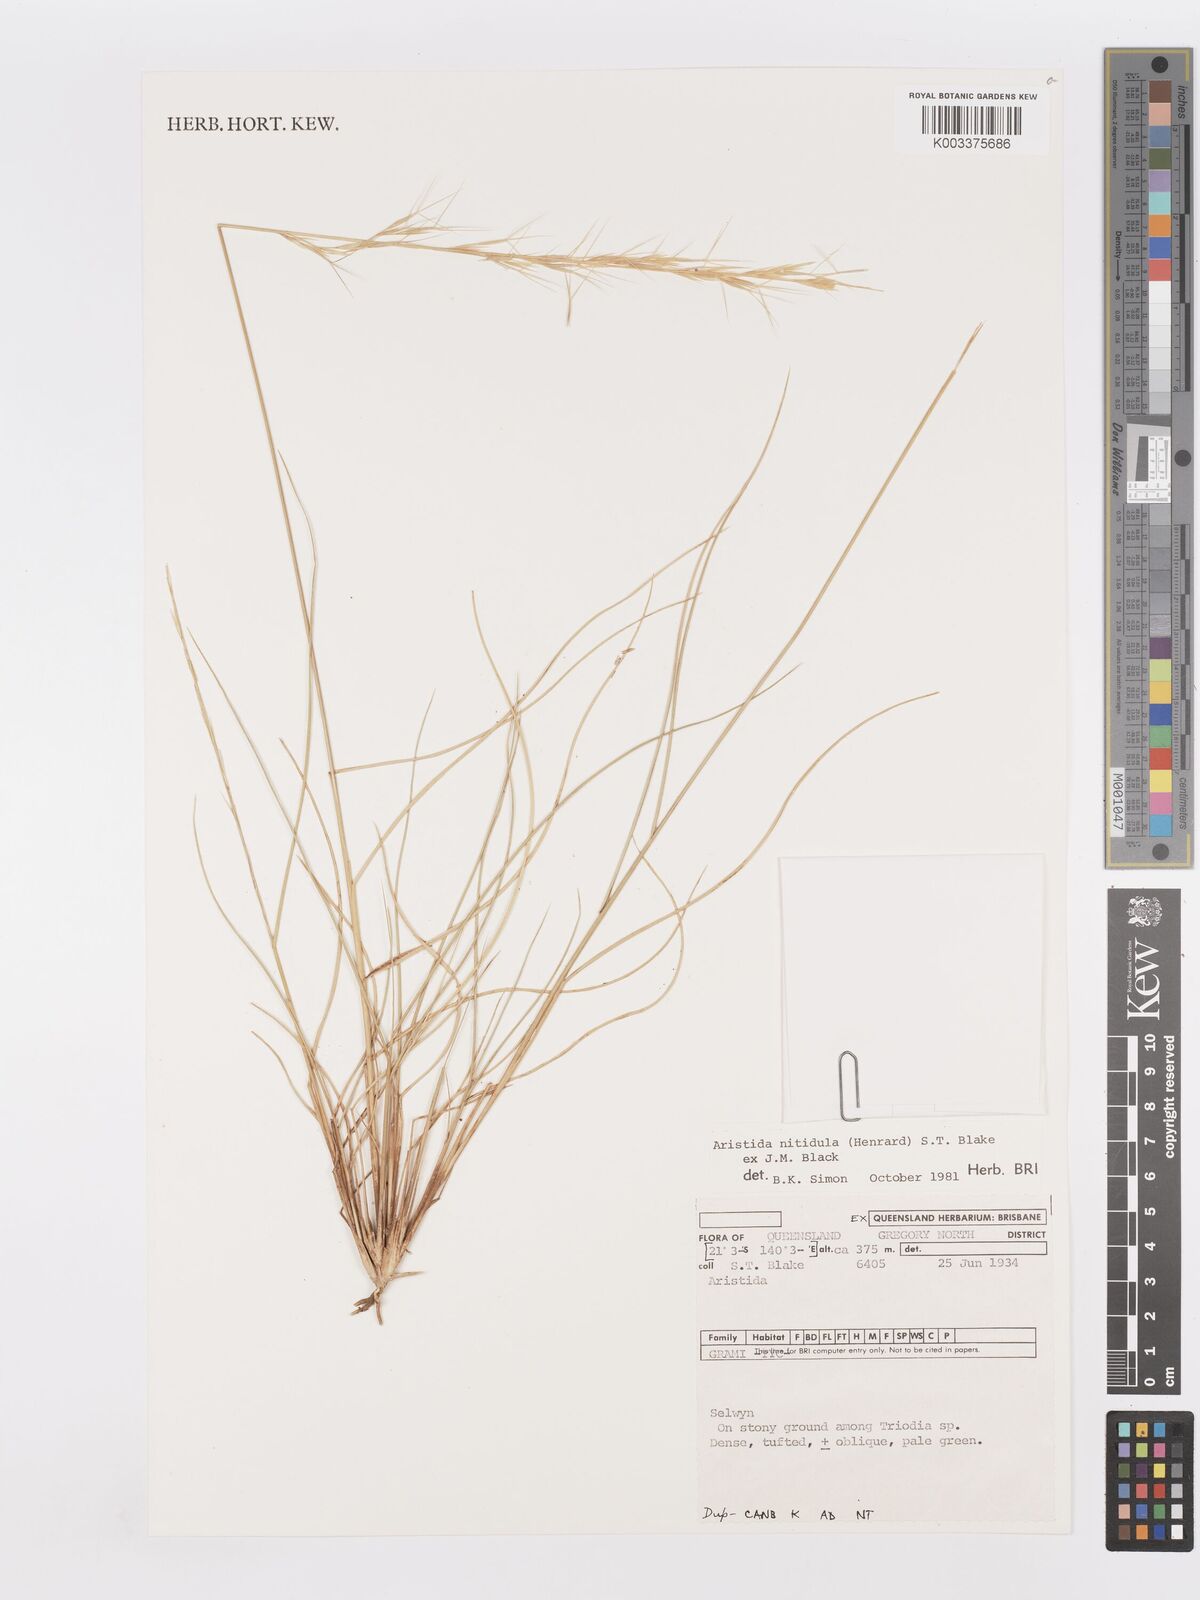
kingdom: Plantae
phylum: Tracheophyta
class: Liliopsida
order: Poales
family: Poaceae
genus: Aristida
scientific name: Aristida nitidula
